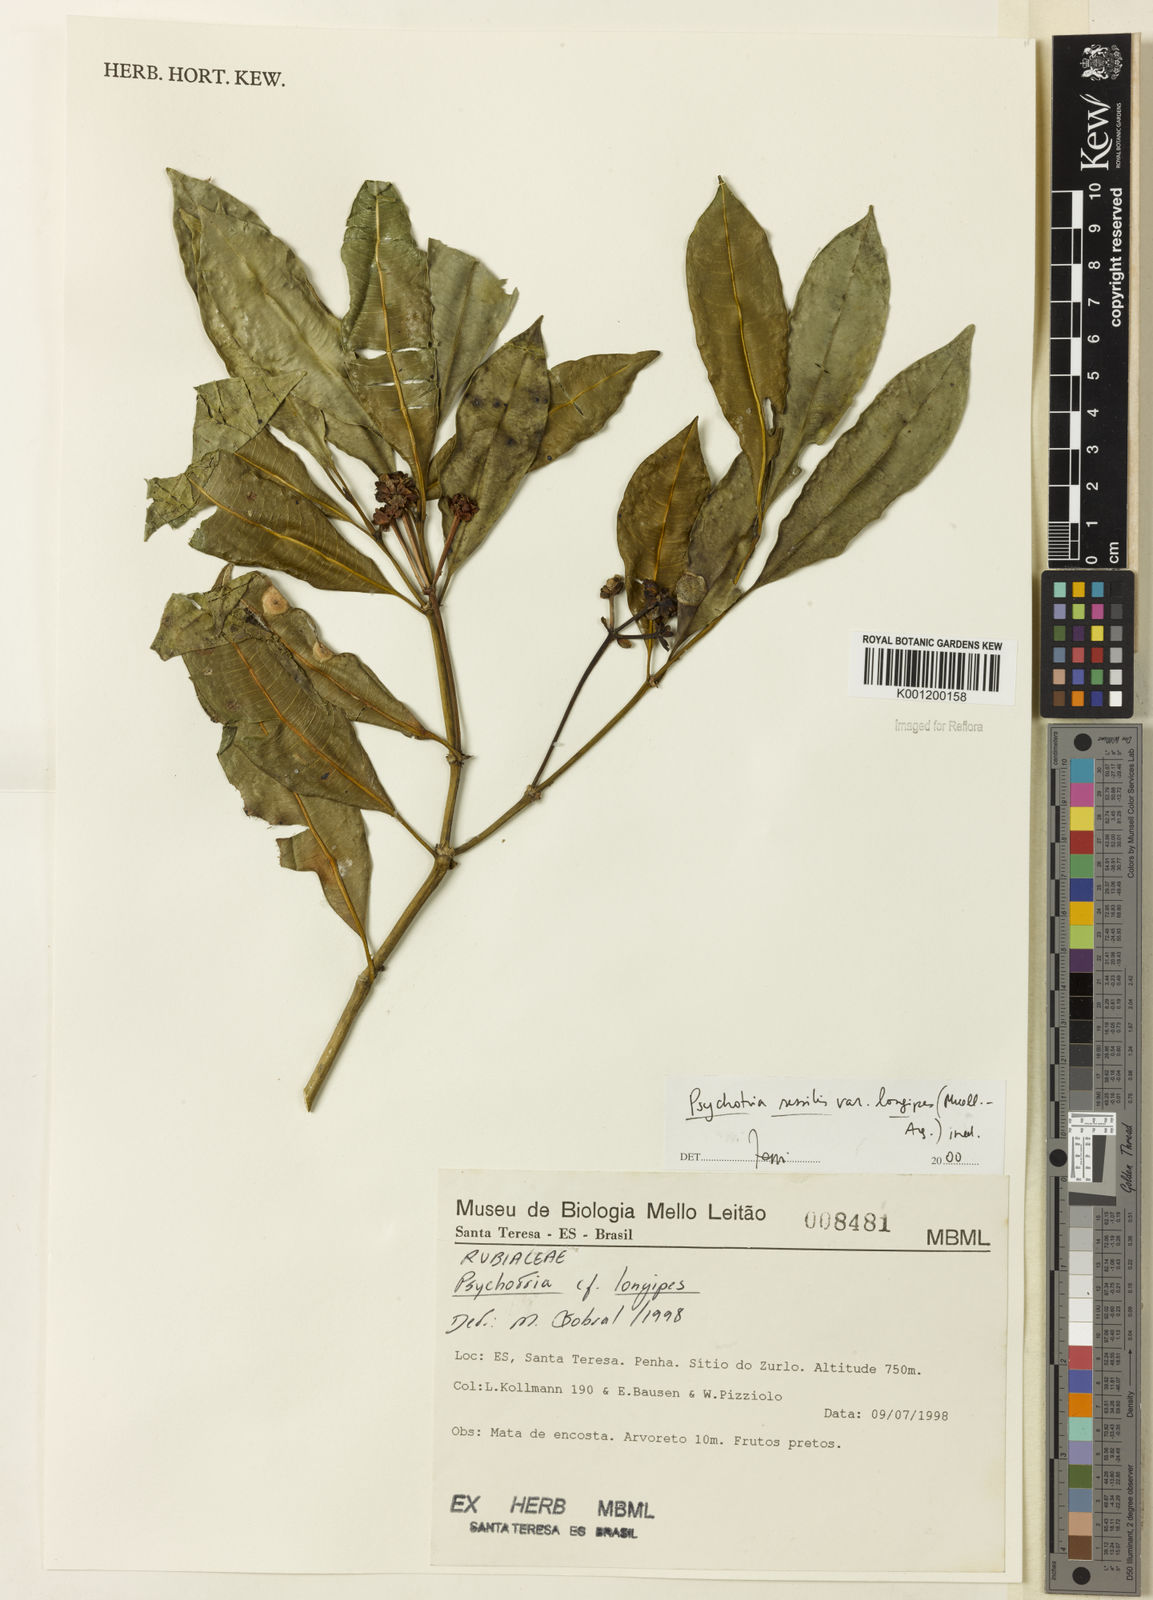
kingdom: Plantae
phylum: Tracheophyta
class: Magnoliopsida
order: Gentianales
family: Rubiaceae
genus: Rudgea
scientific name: Rudgea sessilis
